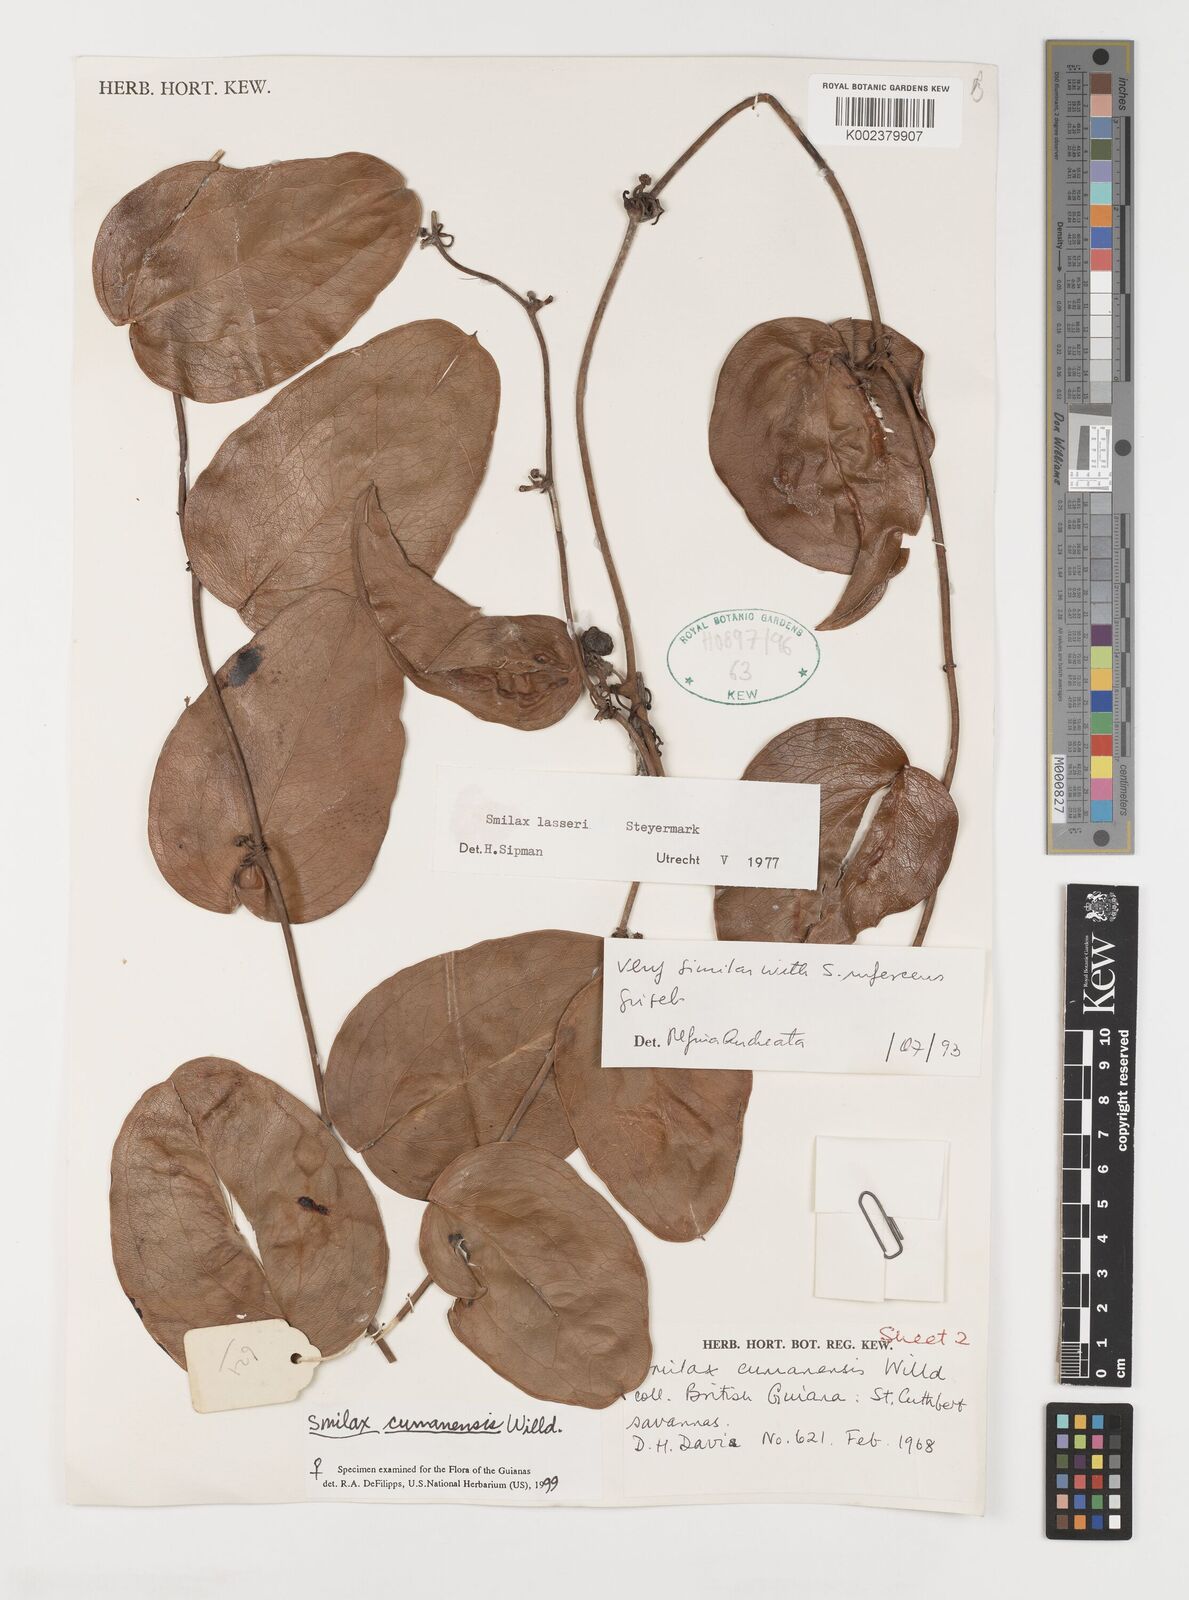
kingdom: Plantae
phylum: Tracheophyta
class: Liliopsida
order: Liliales
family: Smilacaceae
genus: Smilax
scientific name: Smilax oblongata
